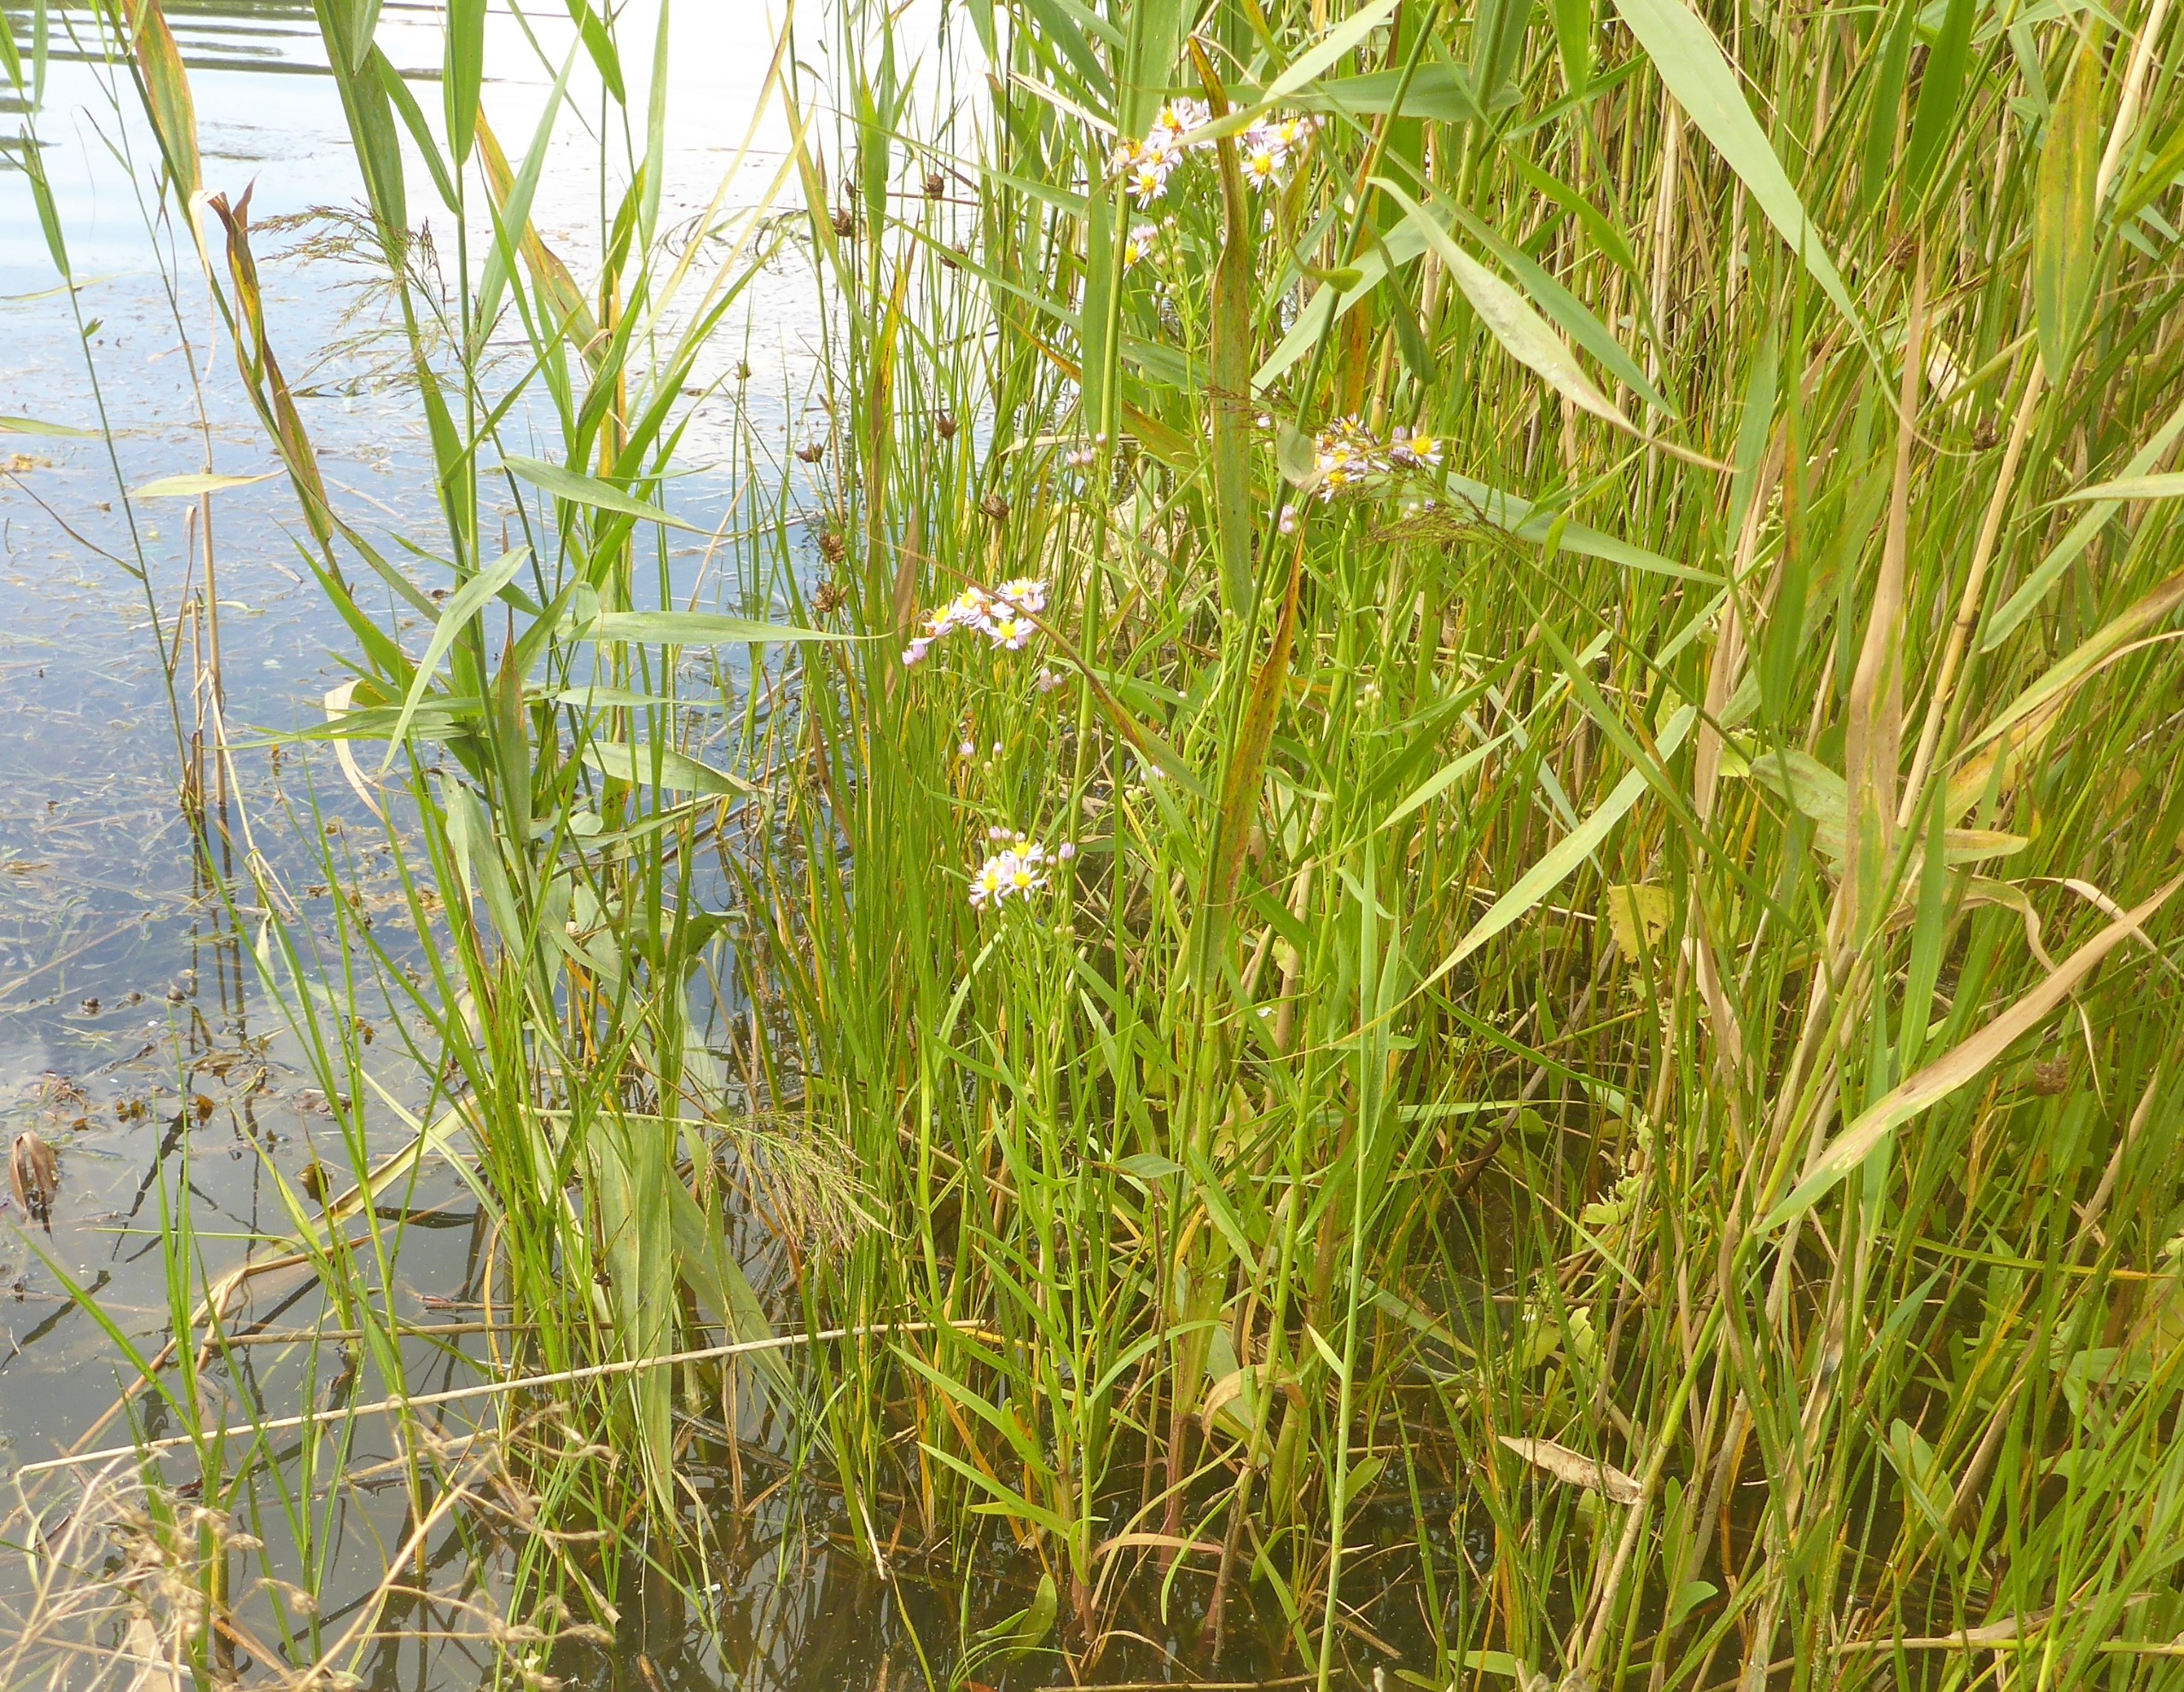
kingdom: Plantae
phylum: Tracheophyta
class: Magnoliopsida
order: Asterales
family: Asteraceae
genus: Tripolium
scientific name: Tripolium pannonicum
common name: Strandasters
